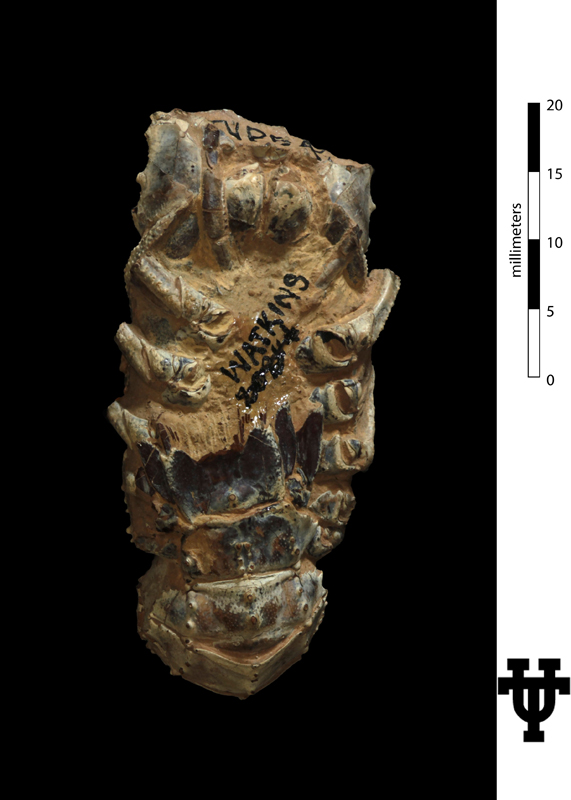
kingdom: Animalia
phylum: Arthropoda
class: Malacostraca
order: Decapoda
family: Palinuridae
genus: Linuparus
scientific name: Linuparus watkinsi
